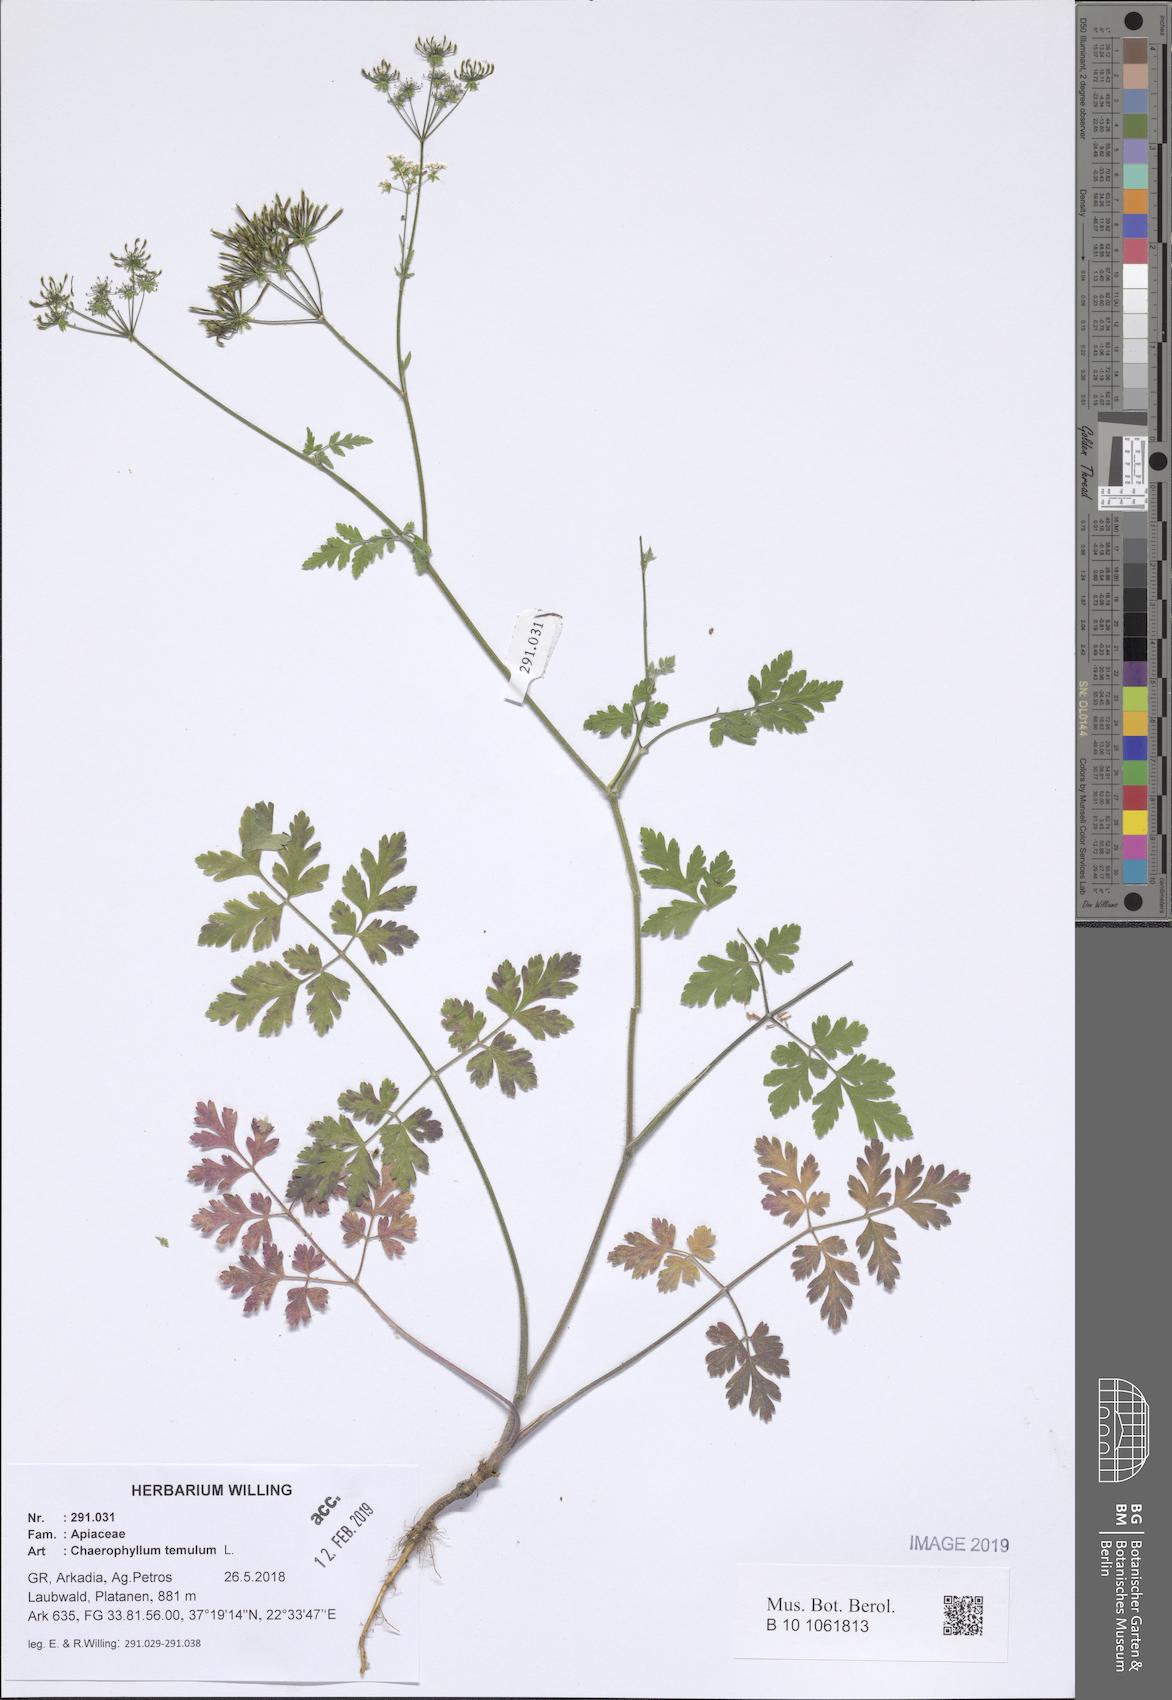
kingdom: Plantae
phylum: Tracheophyta
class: Magnoliopsida
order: Apiales
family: Apiaceae
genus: Chaerophyllum
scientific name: Chaerophyllum temulum
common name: Rough chervil
